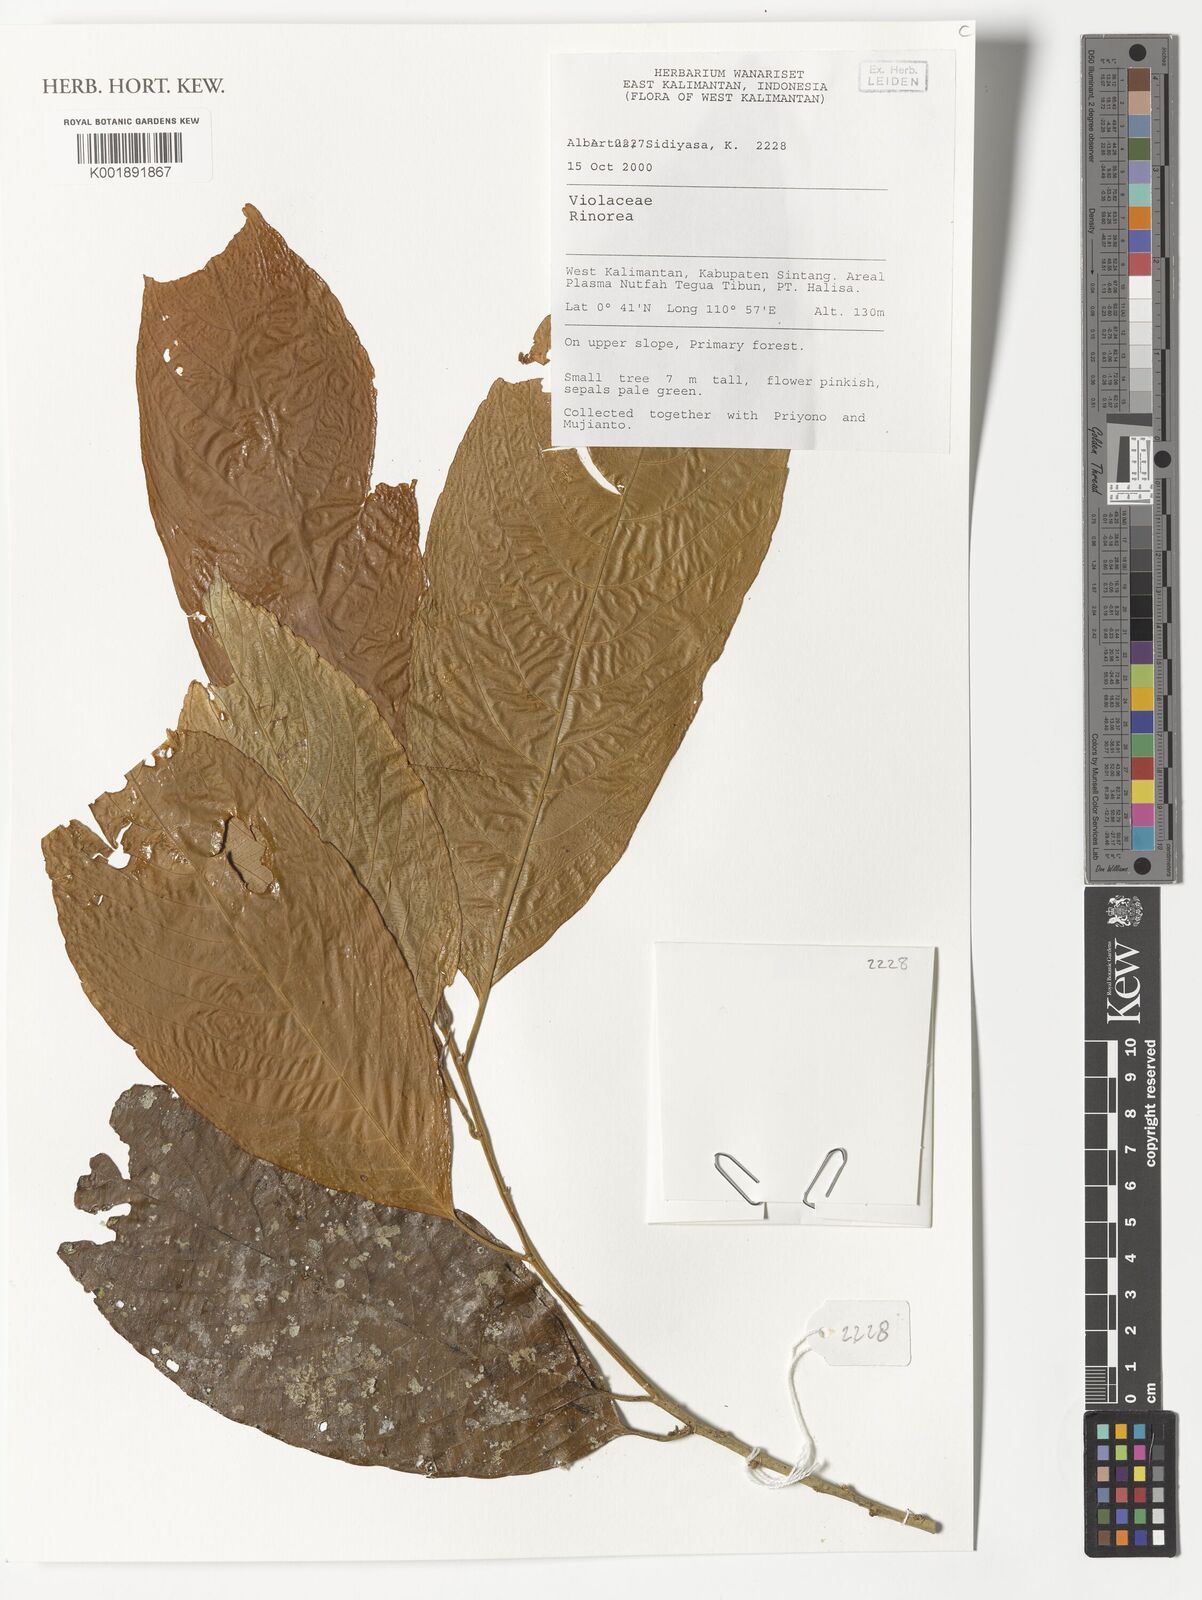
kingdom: Plantae
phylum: Tracheophyta
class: Magnoliopsida
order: Malpighiales
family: Violaceae
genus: Rinorea
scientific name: Rinorea
